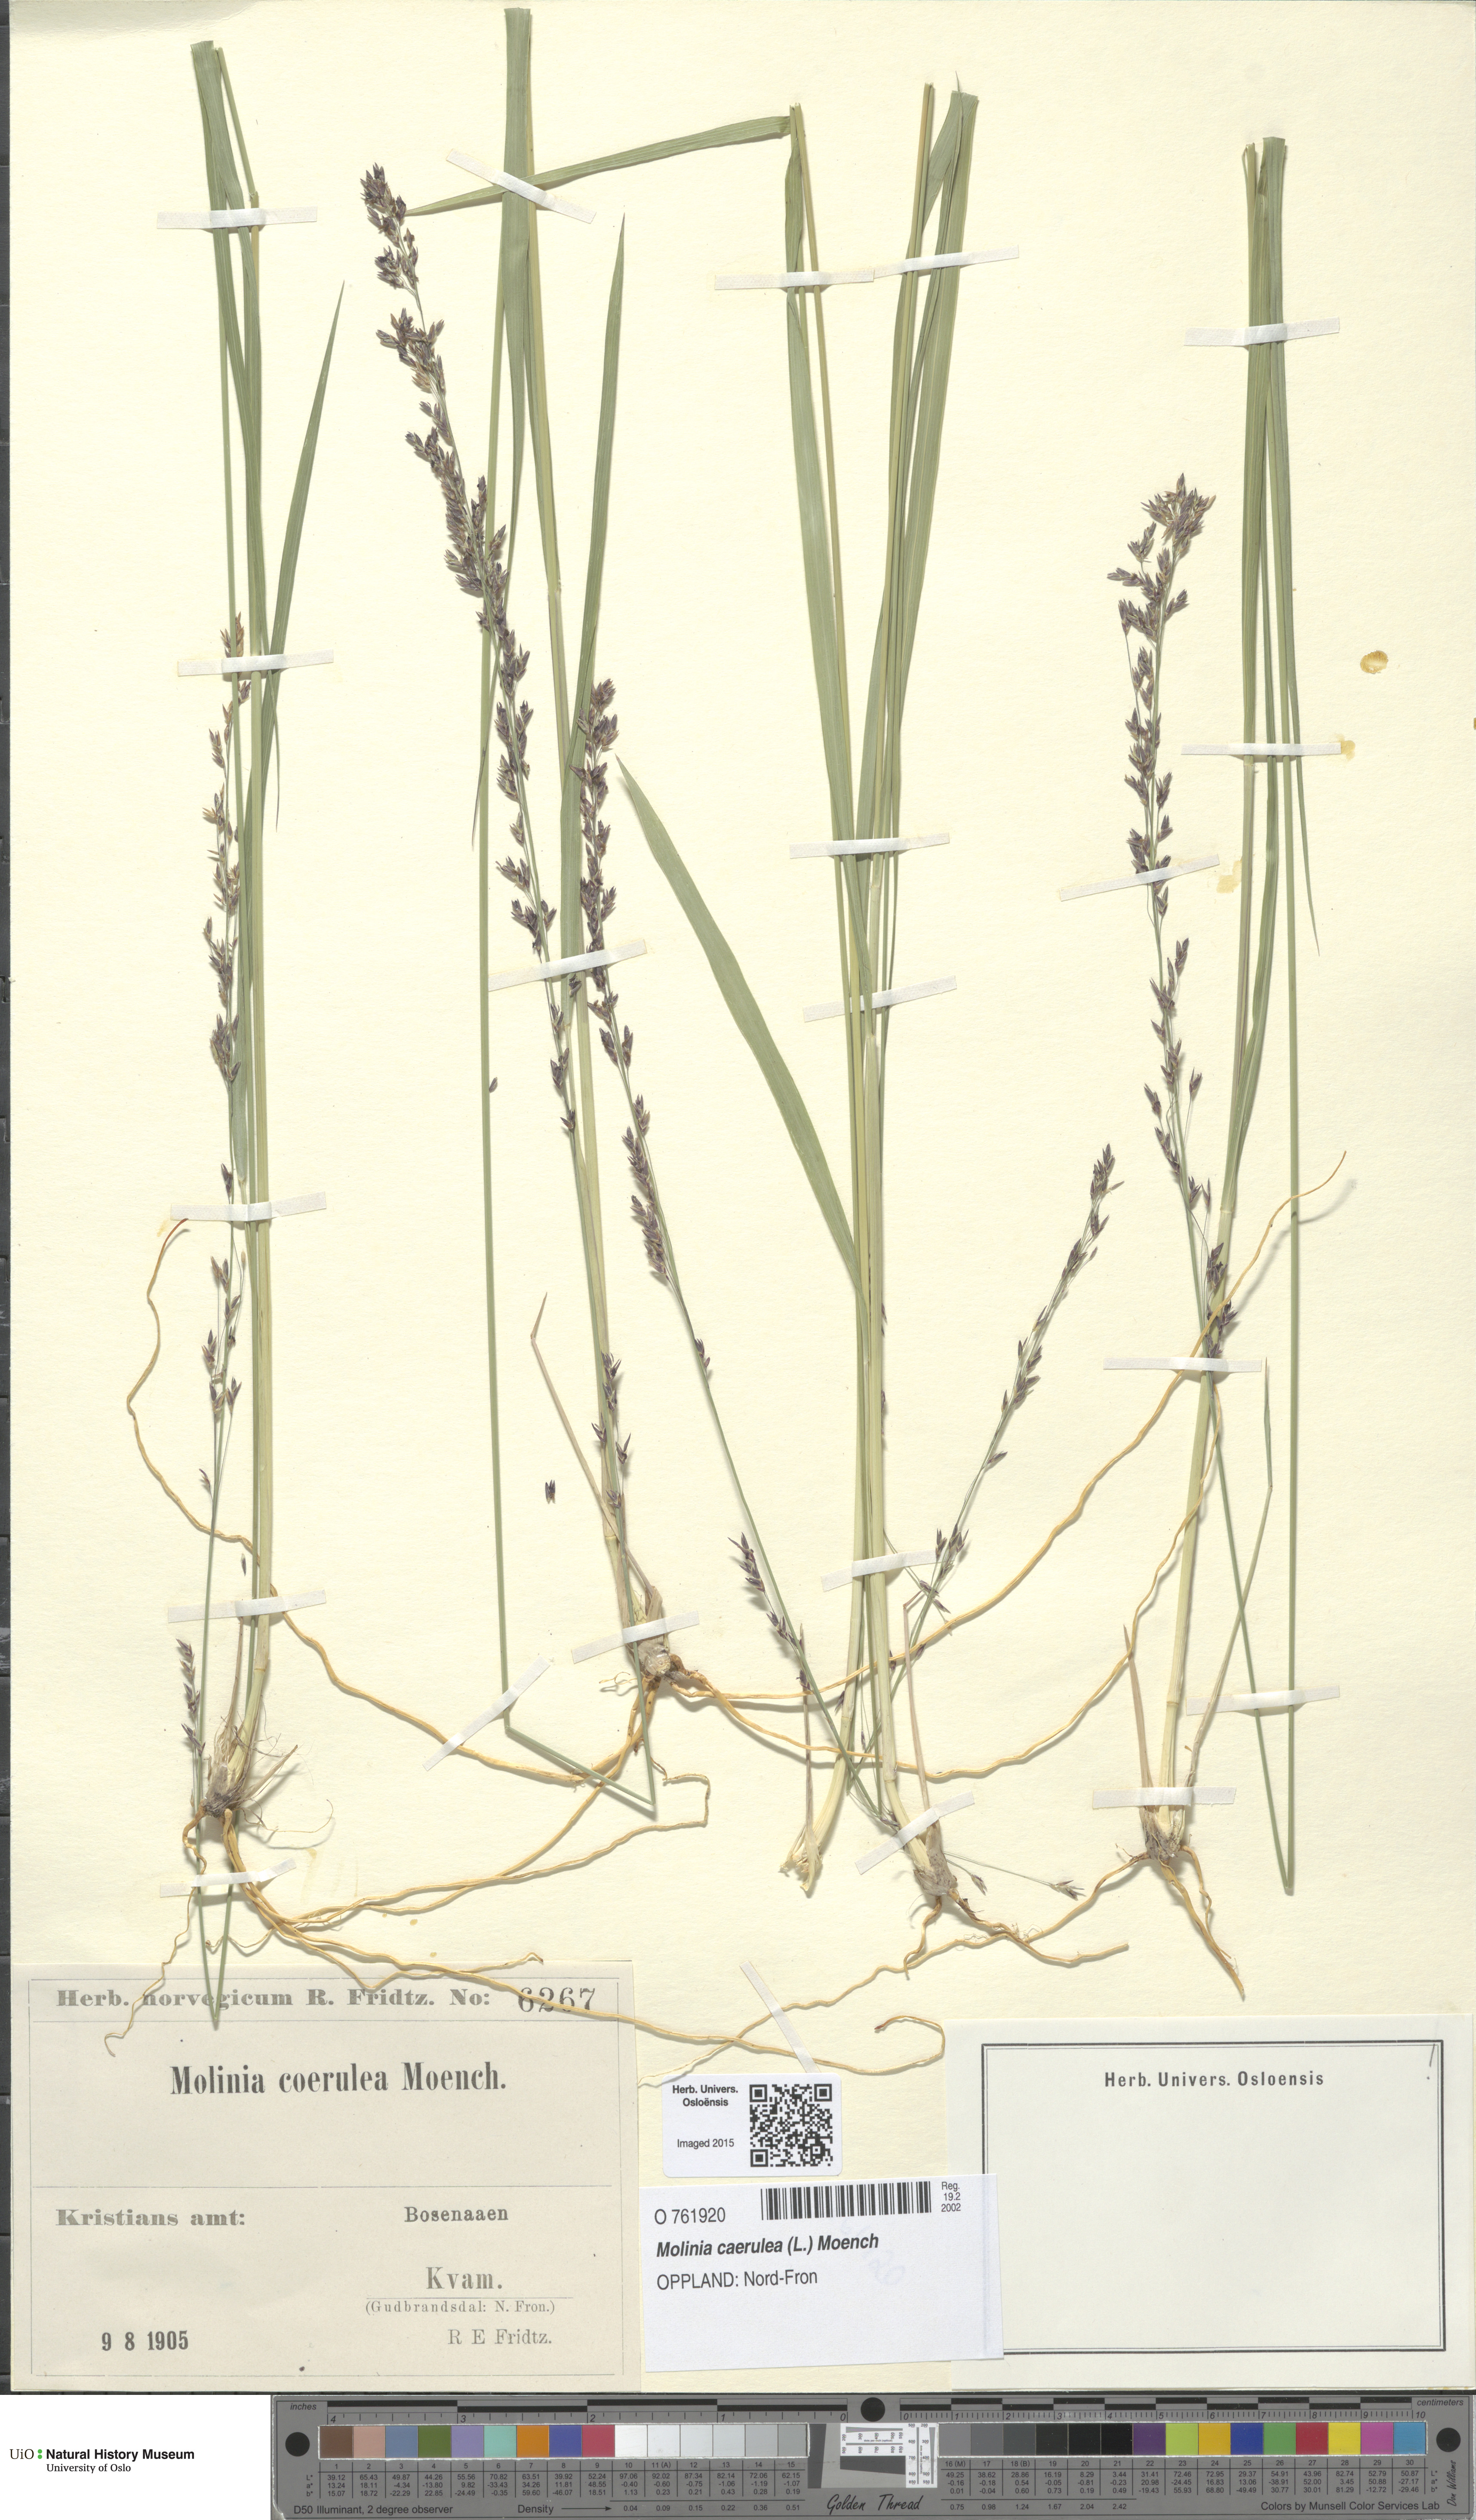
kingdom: Plantae
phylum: Tracheophyta
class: Liliopsida
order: Poales
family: Poaceae
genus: Molinia
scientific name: Molinia caerulea
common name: Purple moor-grass
